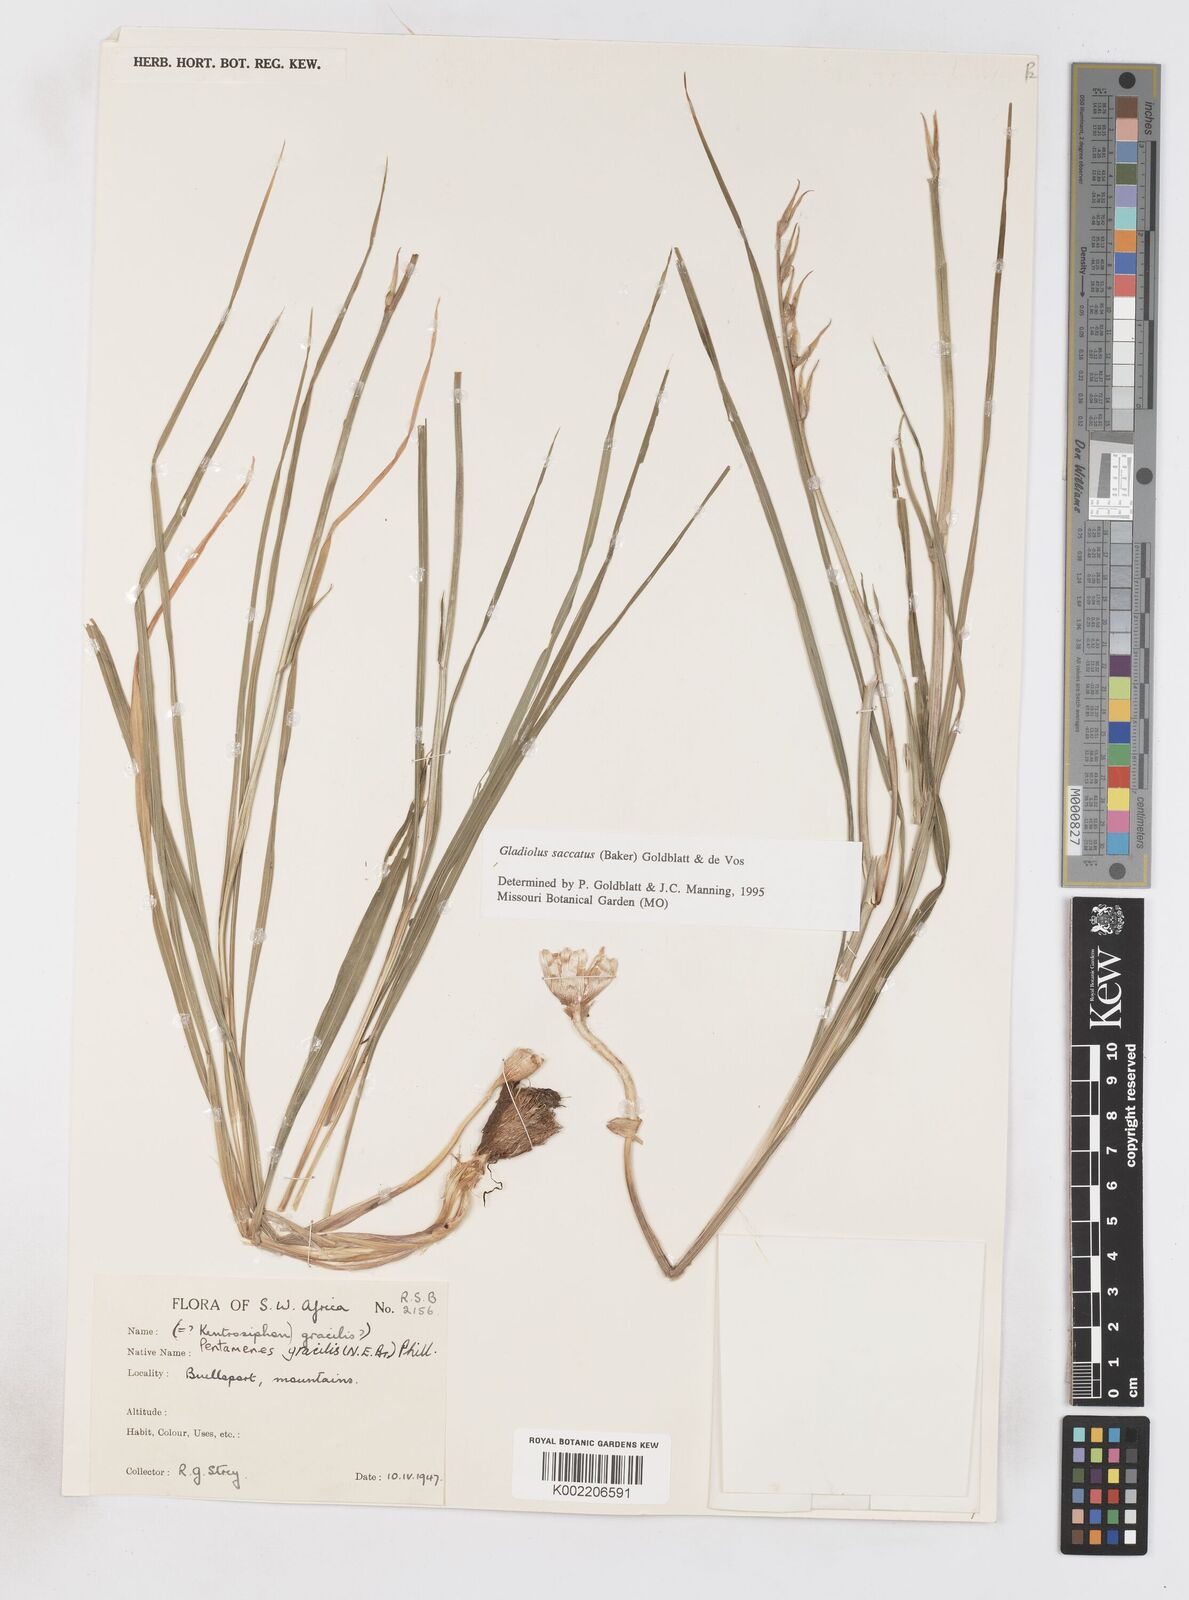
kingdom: Plantae
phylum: Tracheophyta
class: Liliopsida
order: Asparagales
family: Iridaceae
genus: Gladiolus
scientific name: Gladiolus saccatus
